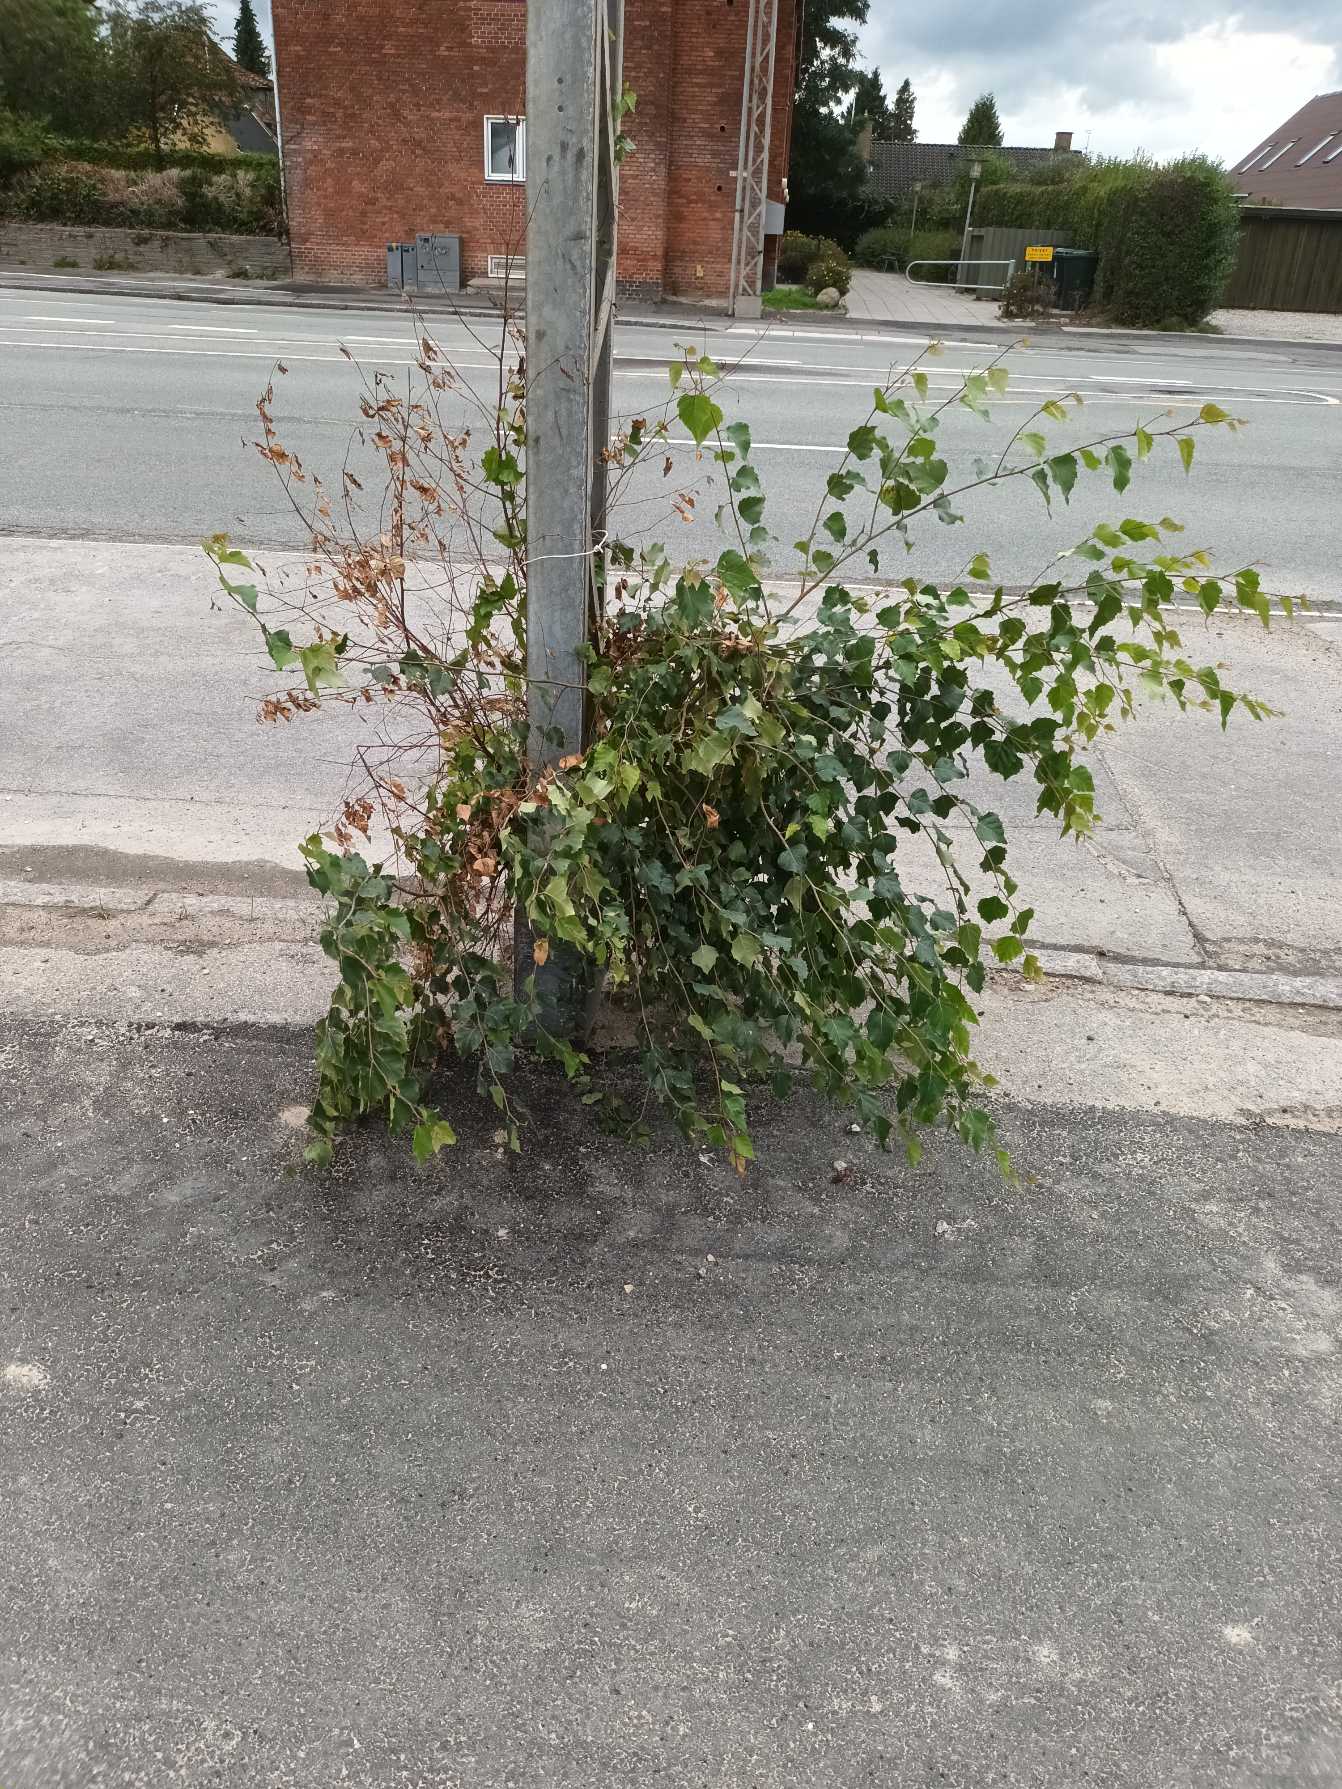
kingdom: Plantae
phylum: Tracheophyta
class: Magnoliopsida
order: Fagales
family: Betulaceae
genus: Betula
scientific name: Betula pendula
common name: Vorte-birk
